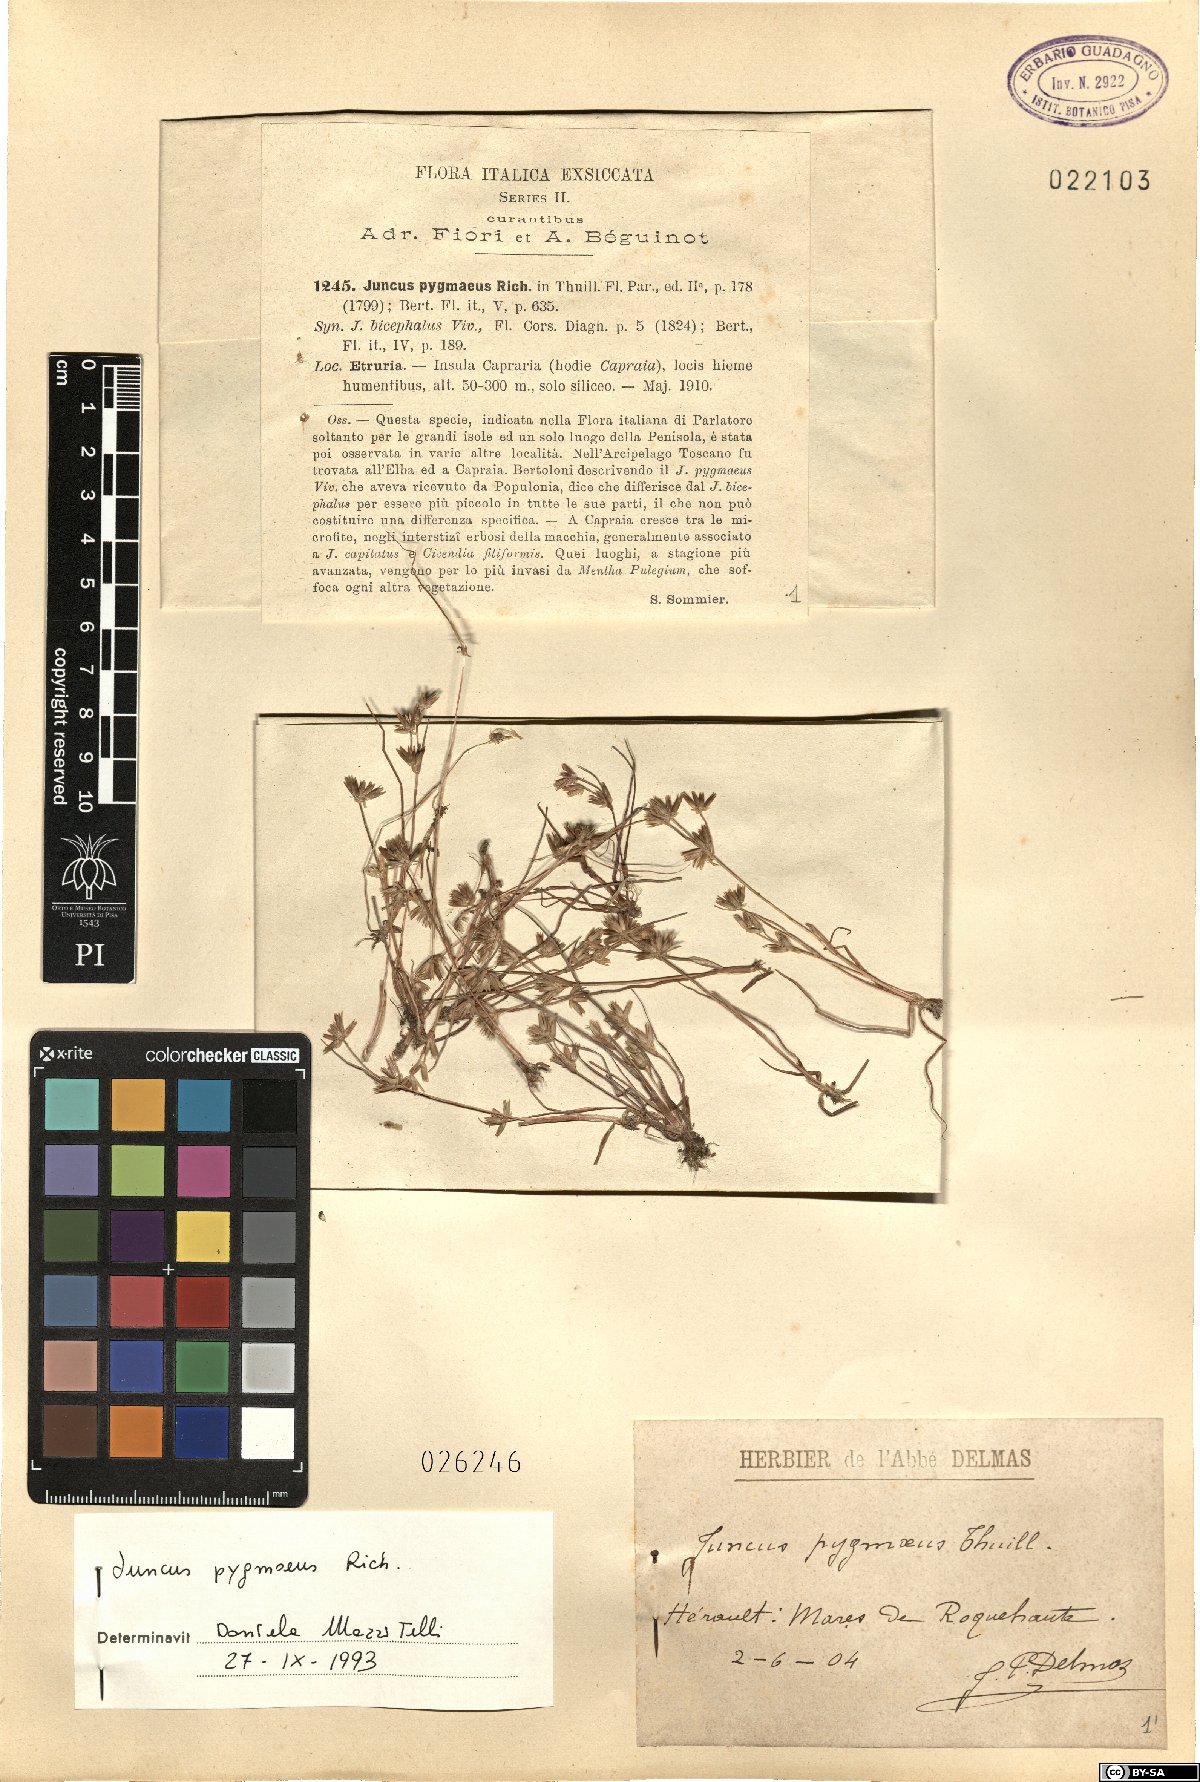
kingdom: Plantae
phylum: Tracheophyta
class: Liliopsida
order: Poales
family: Juncaceae
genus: Juncus
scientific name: Juncus pygmaeus
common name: Pigmy rush
